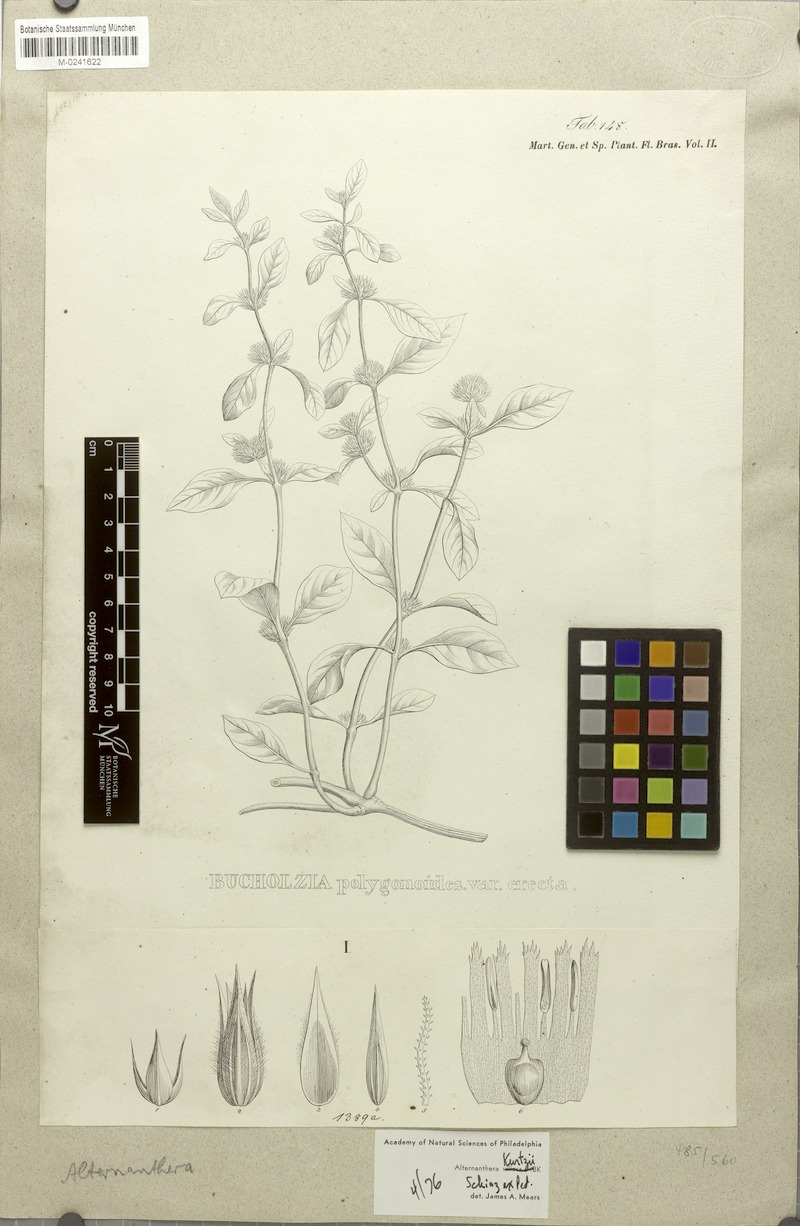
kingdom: Plantae
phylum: Tracheophyta
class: Magnoliopsida
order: Caryophyllales
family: Amaranthaceae
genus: Alternanthera
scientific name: Alternanthera ficoidea
